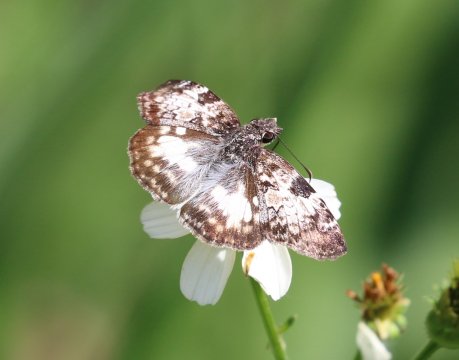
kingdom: Animalia
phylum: Arthropoda
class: Insecta
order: Lepidoptera
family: Hesperiidae
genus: Chiomara
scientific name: Chiomara asychis
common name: White-patched Skipper
